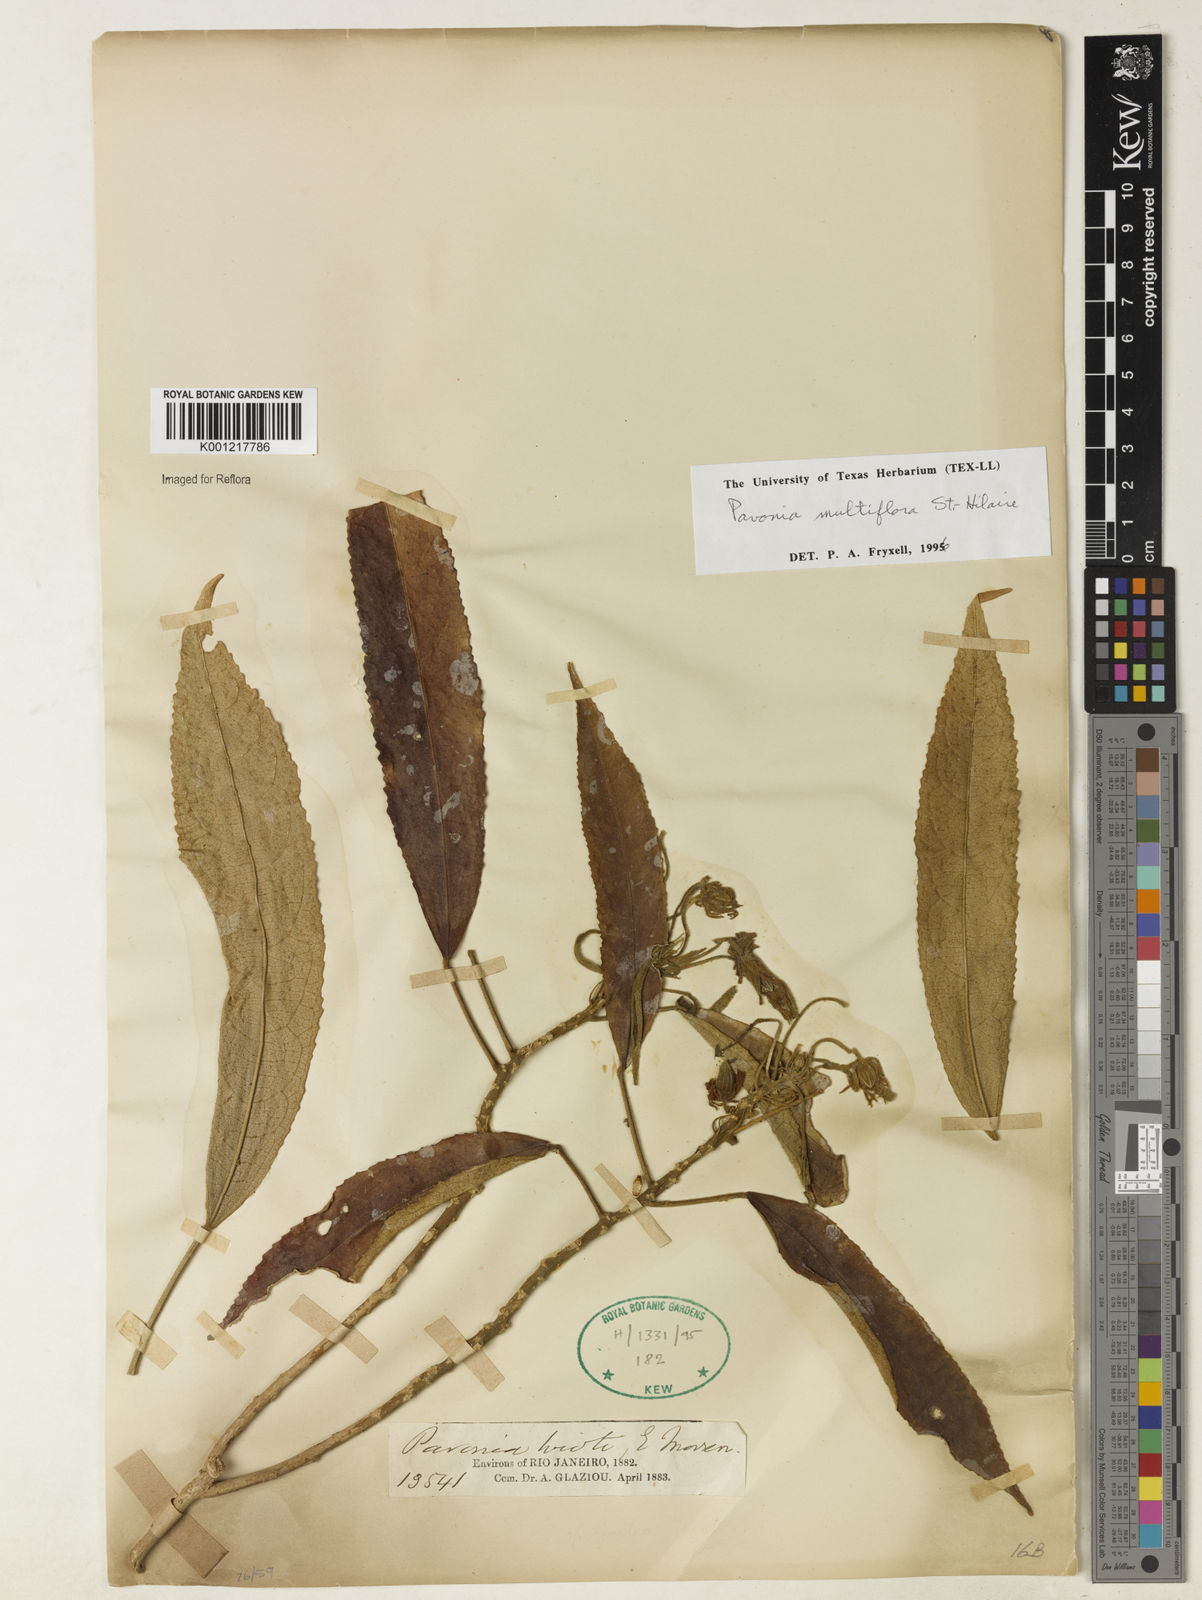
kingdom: Plantae
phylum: Tracheophyta
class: Magnoliopsida
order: Malvales
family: Malvaceae
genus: Pavonia
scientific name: Pavonia multiflora
